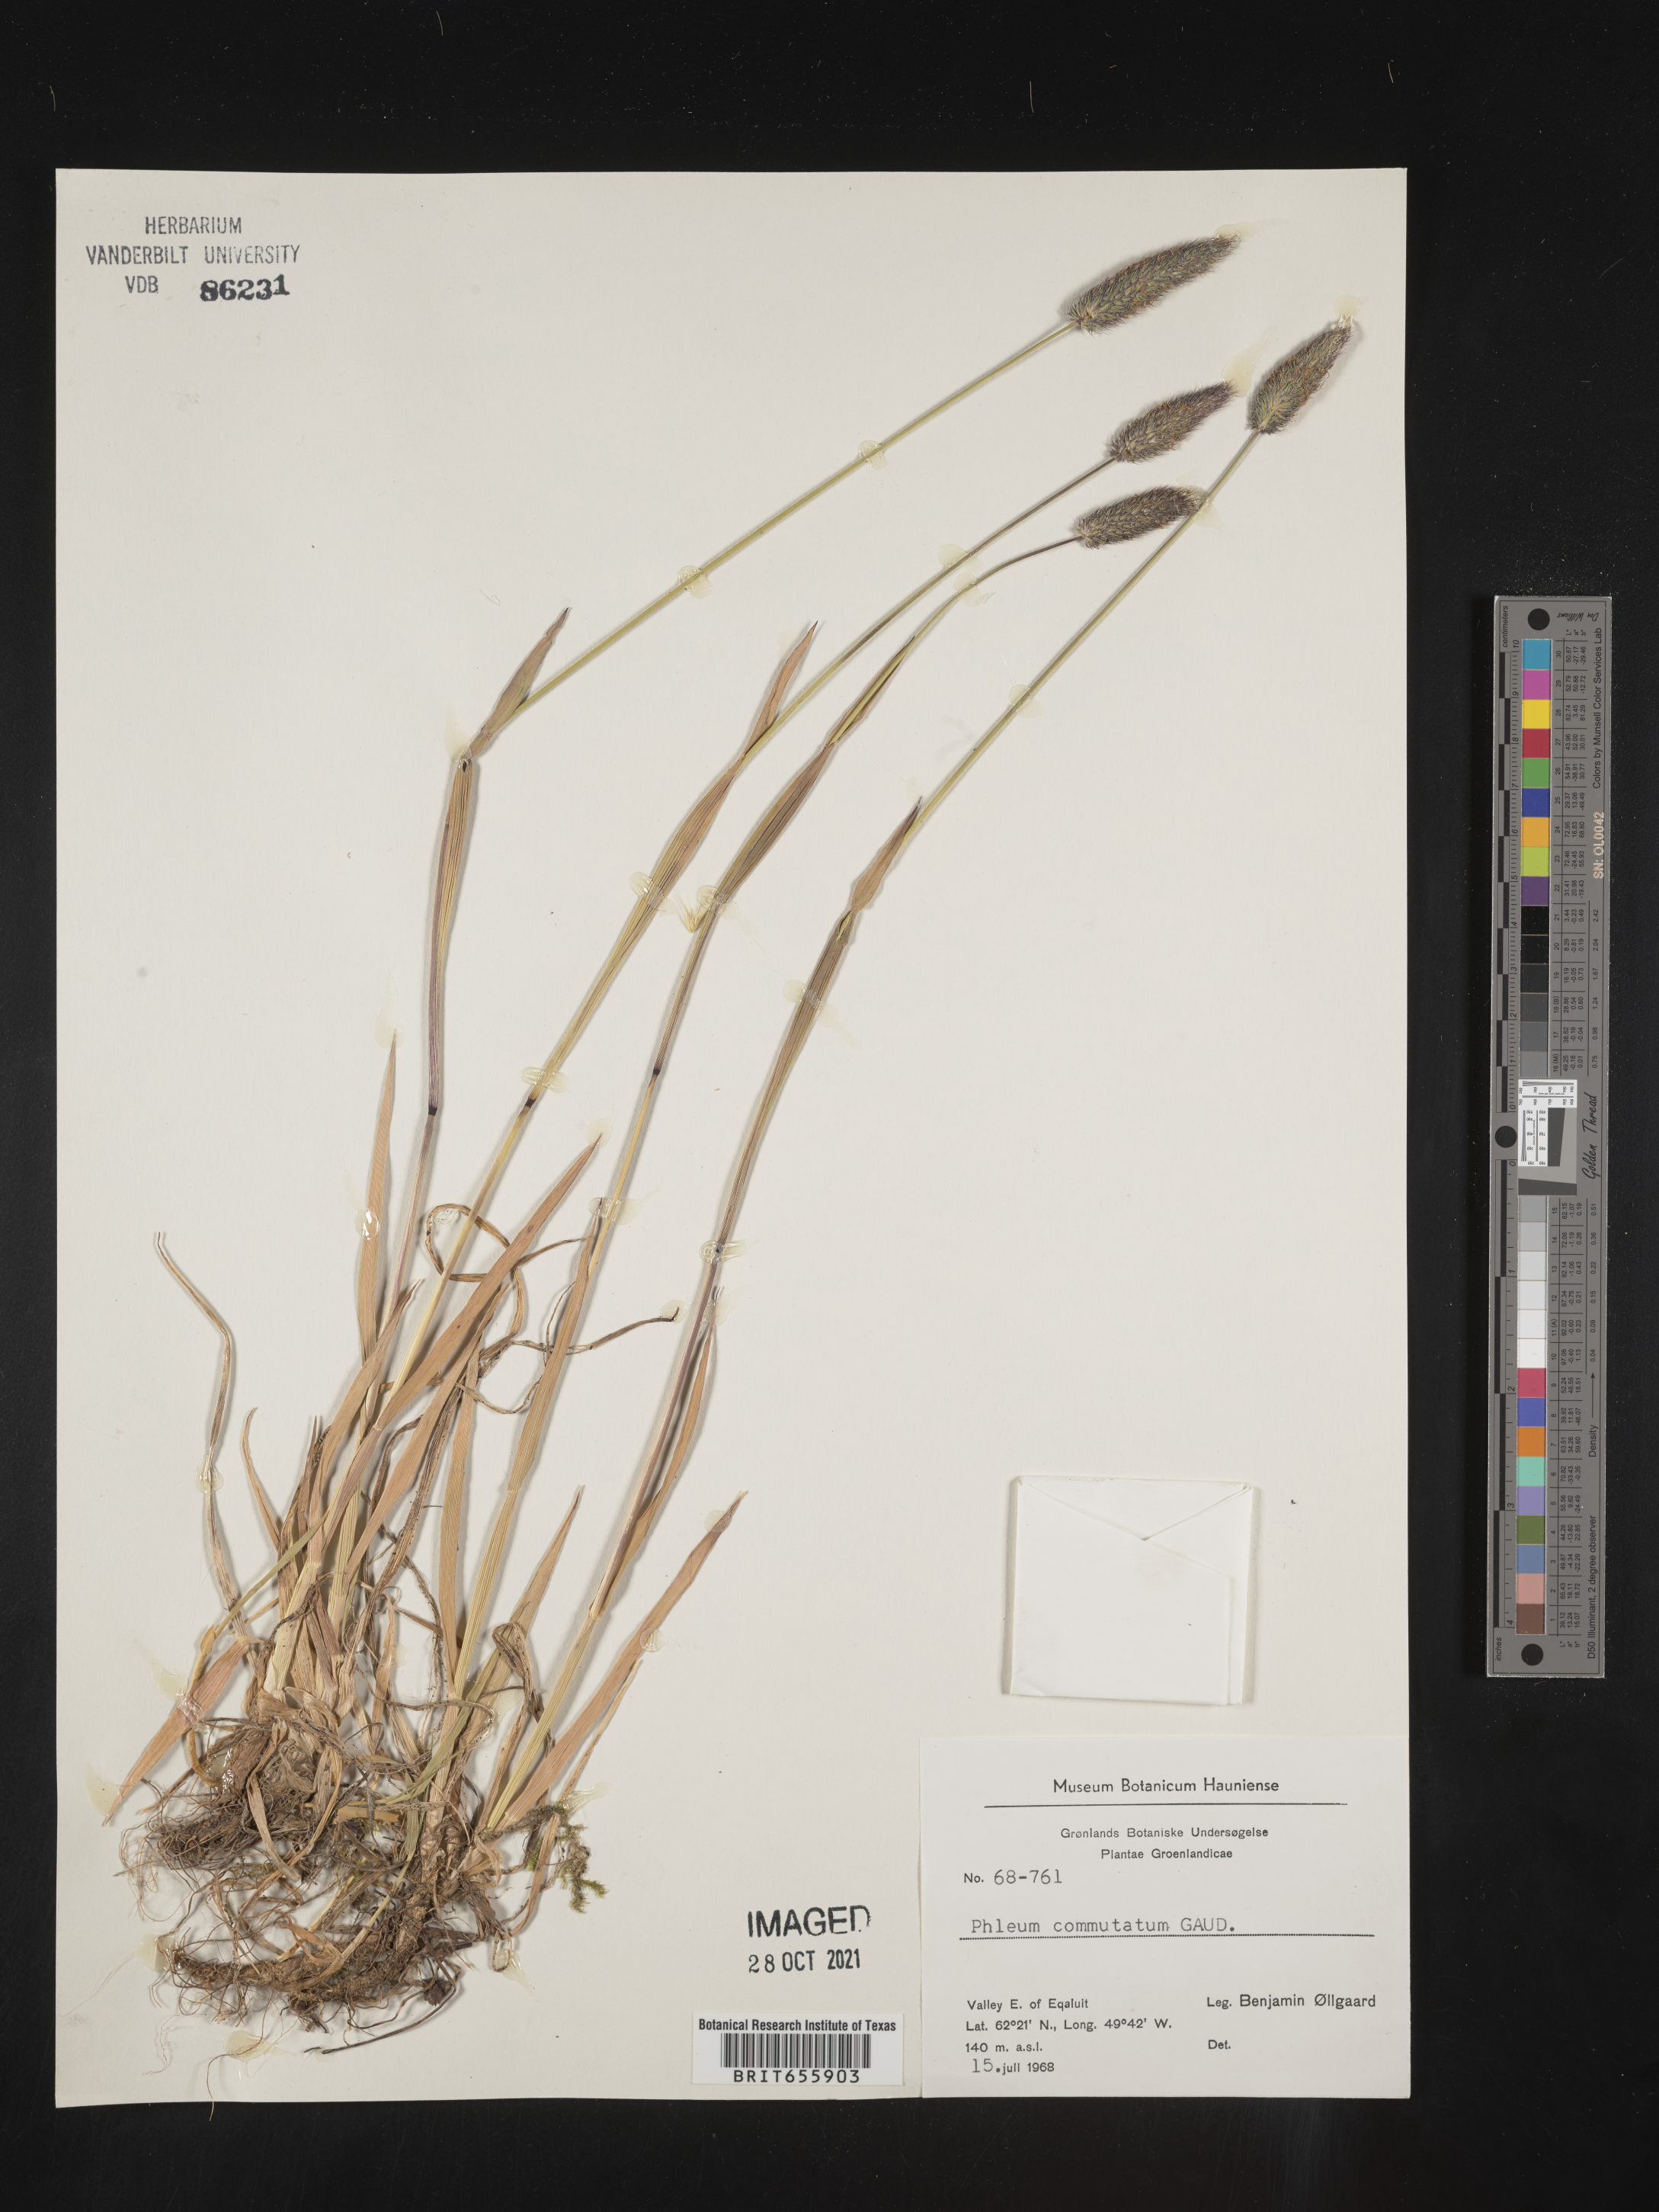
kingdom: Plantae
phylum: Tracheophyta
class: Liliopsida
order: Poales
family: Poaceae
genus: Phleum
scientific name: Phleum
